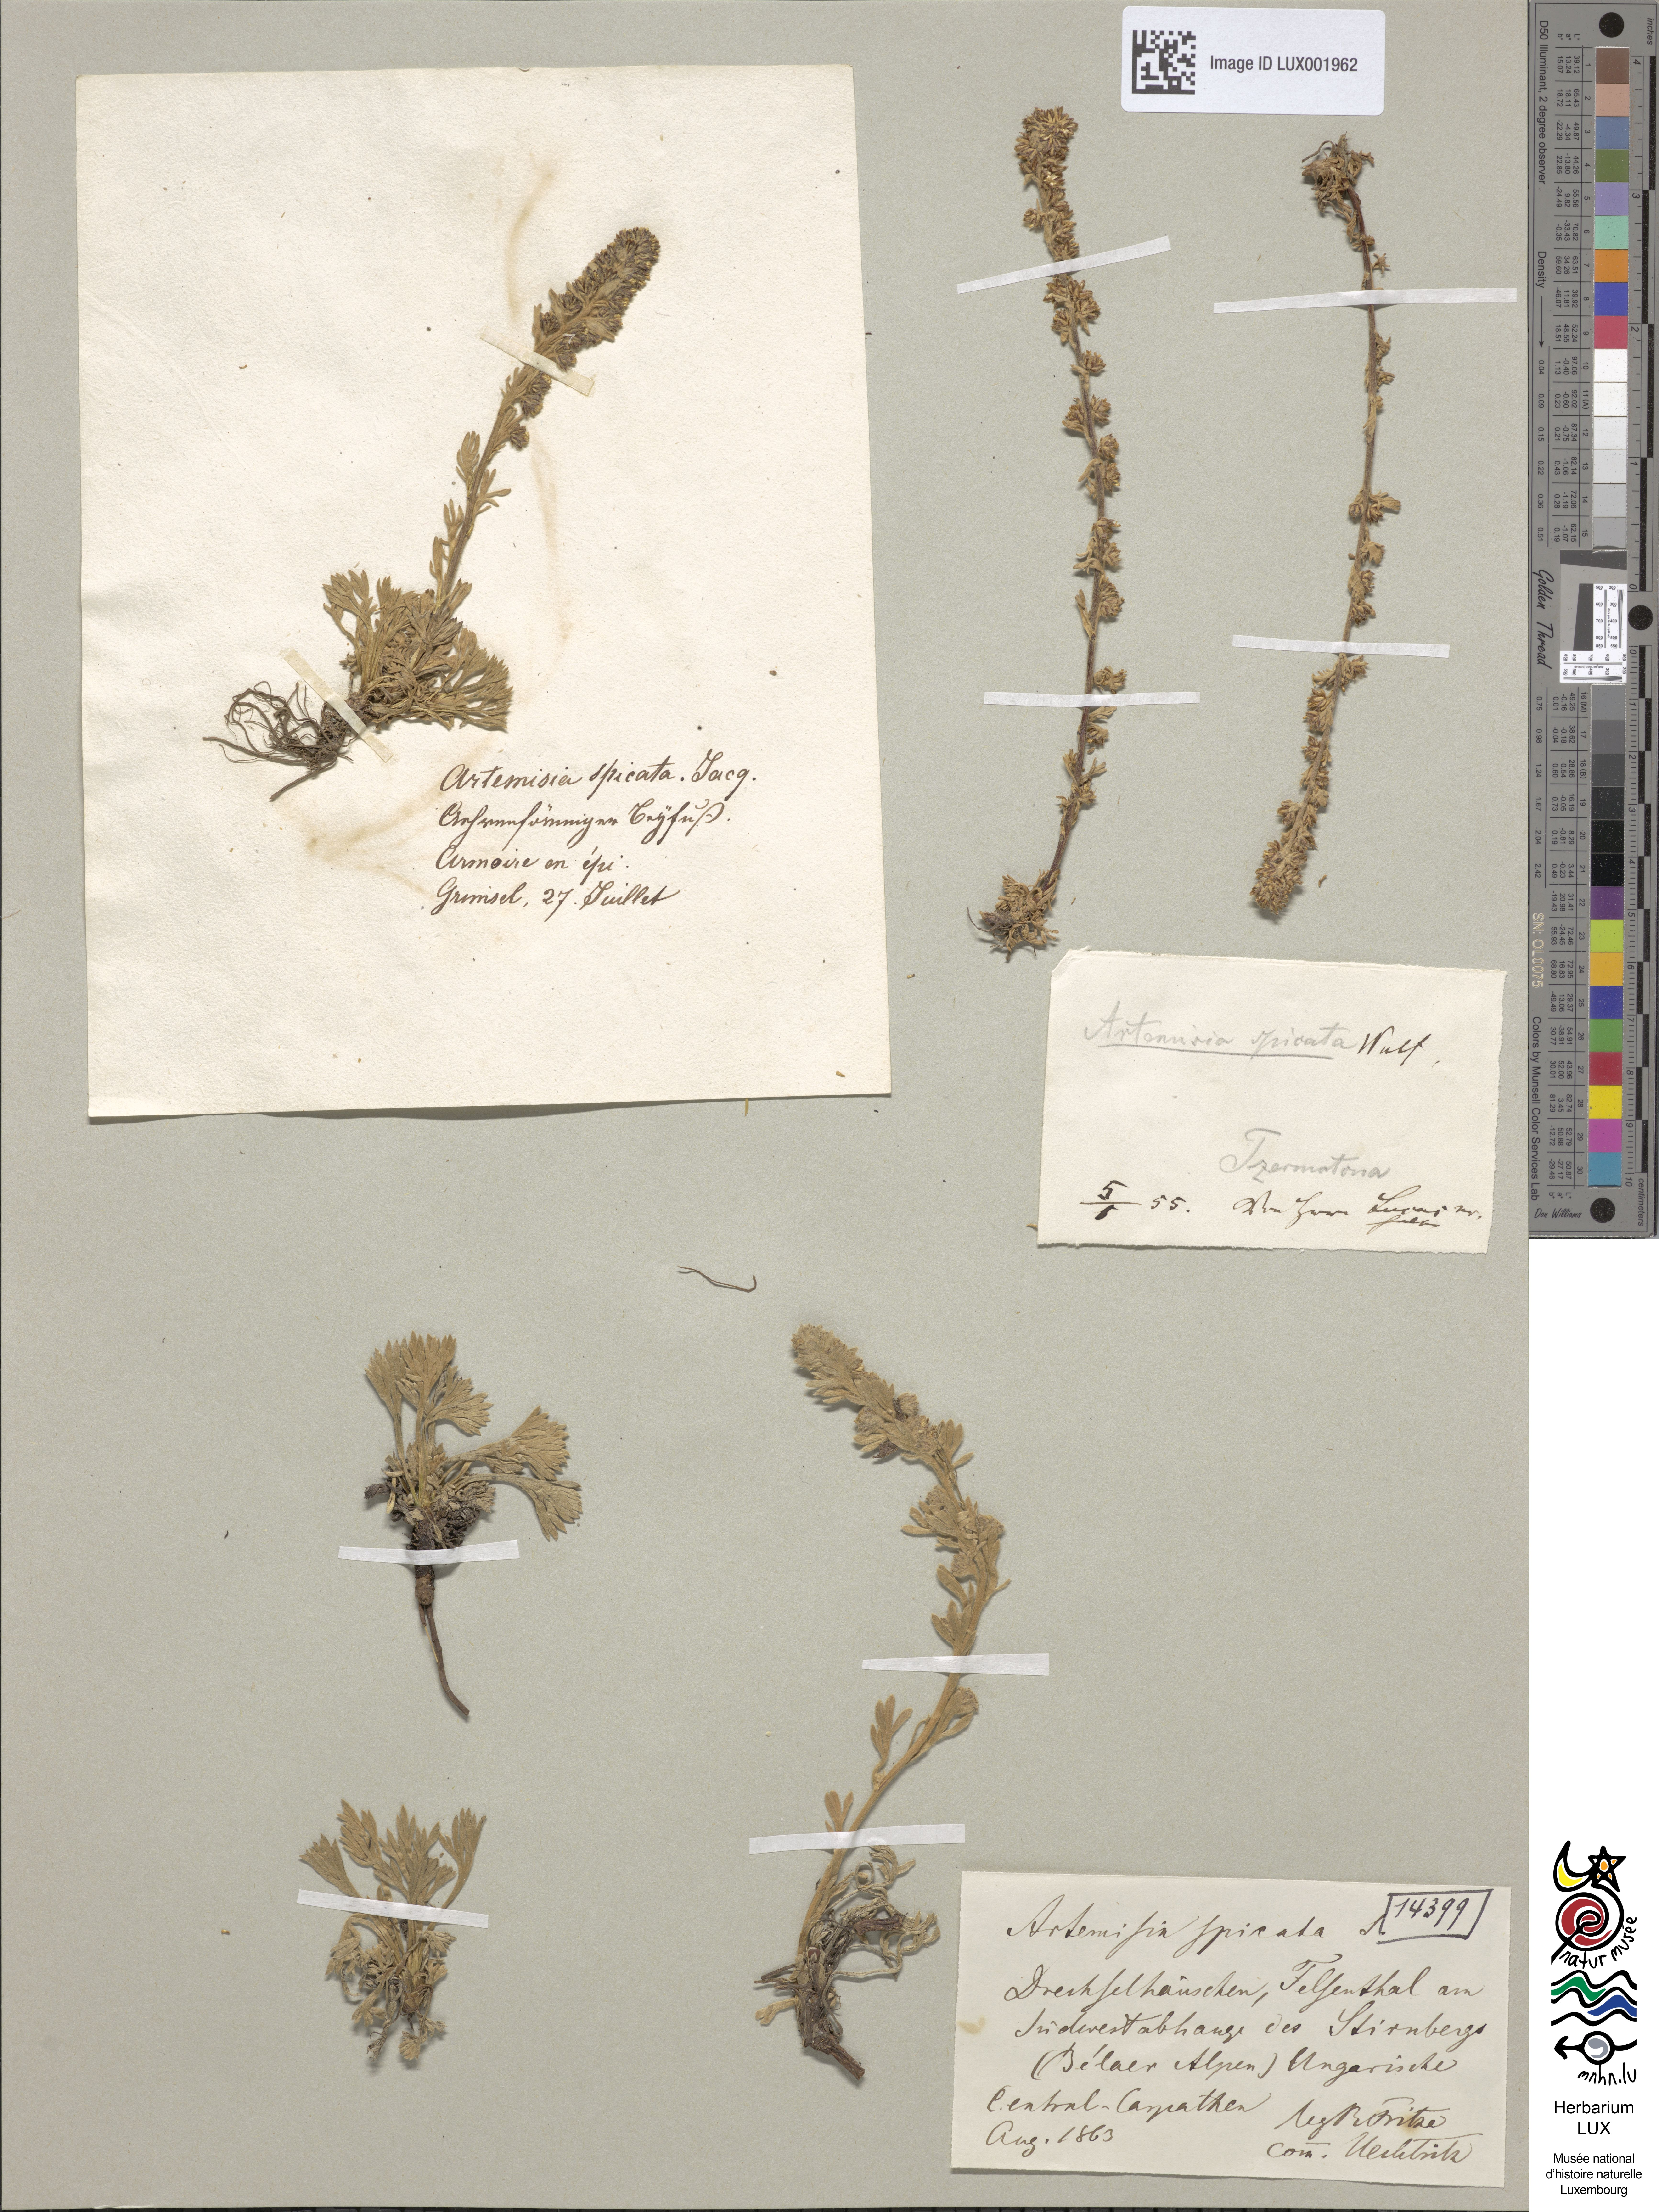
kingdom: Plantae
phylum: Tracheophyta
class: Magnoliopsida
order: Asterales
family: Asteraceae
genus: Artemisia
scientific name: Artemisia genipi
